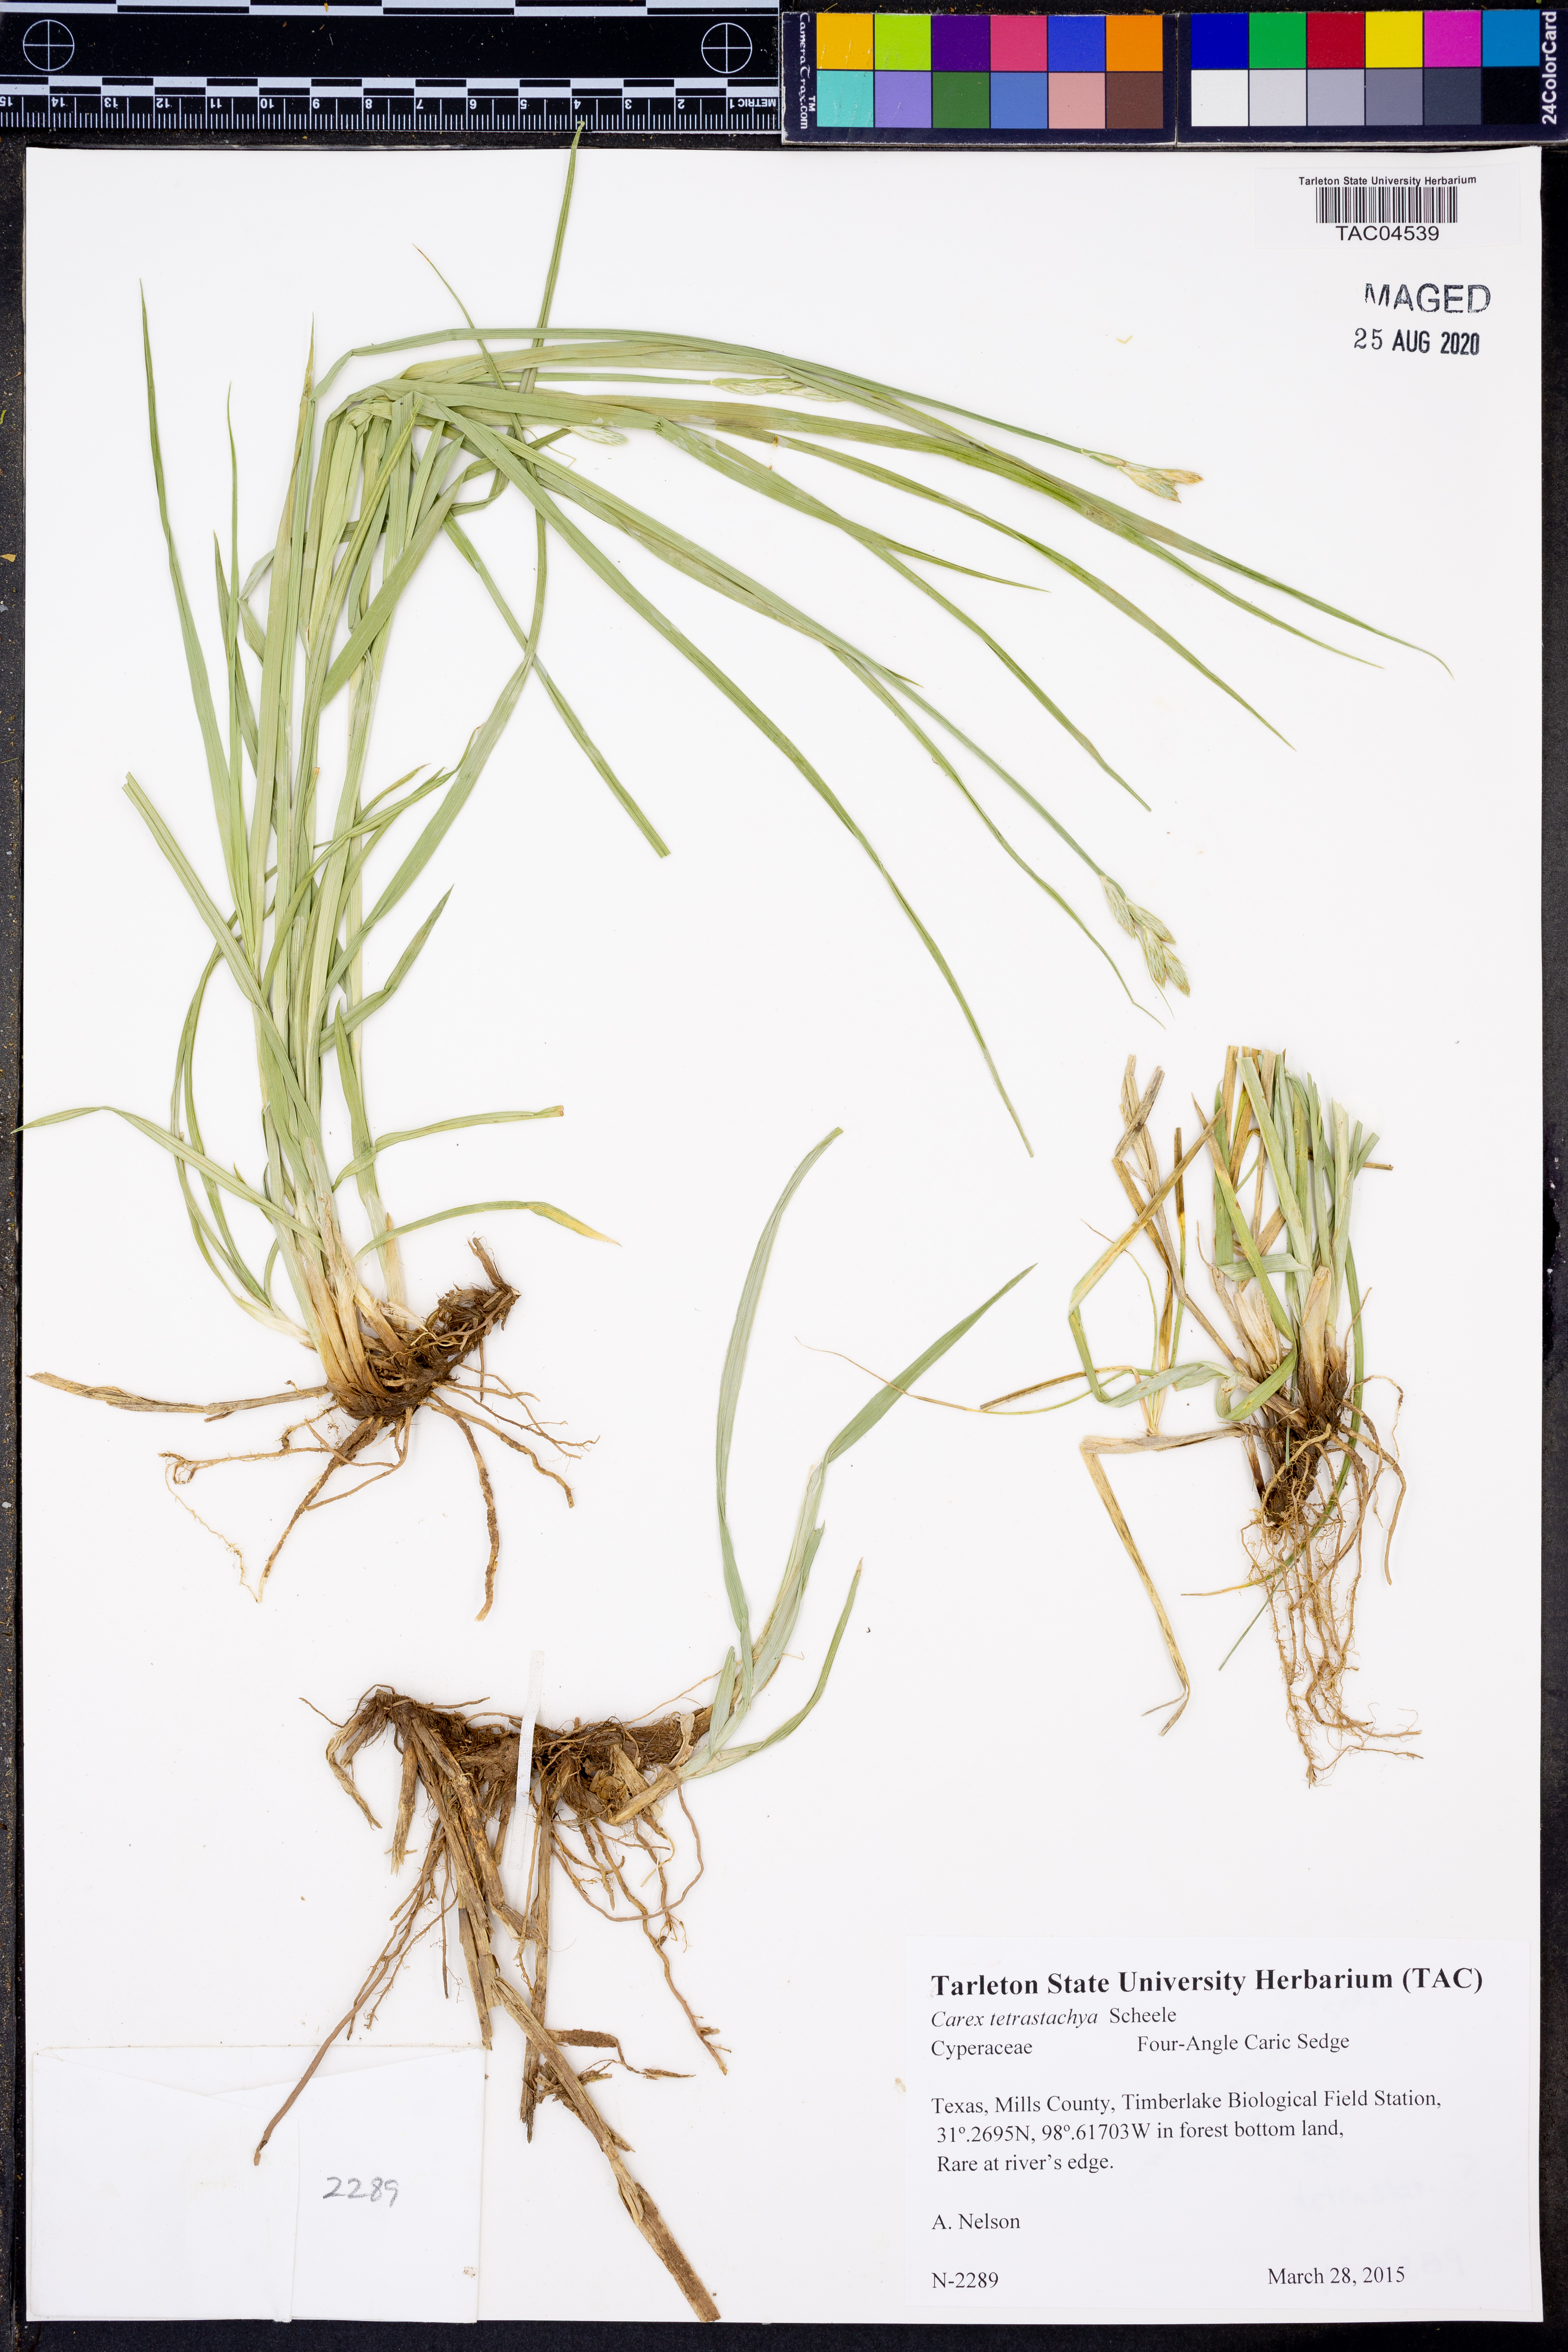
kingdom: Plantae
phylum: Tracheophyta
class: Liliopsida
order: Poales
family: Cyperaceae
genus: Carex
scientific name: Carex tetrastachya
